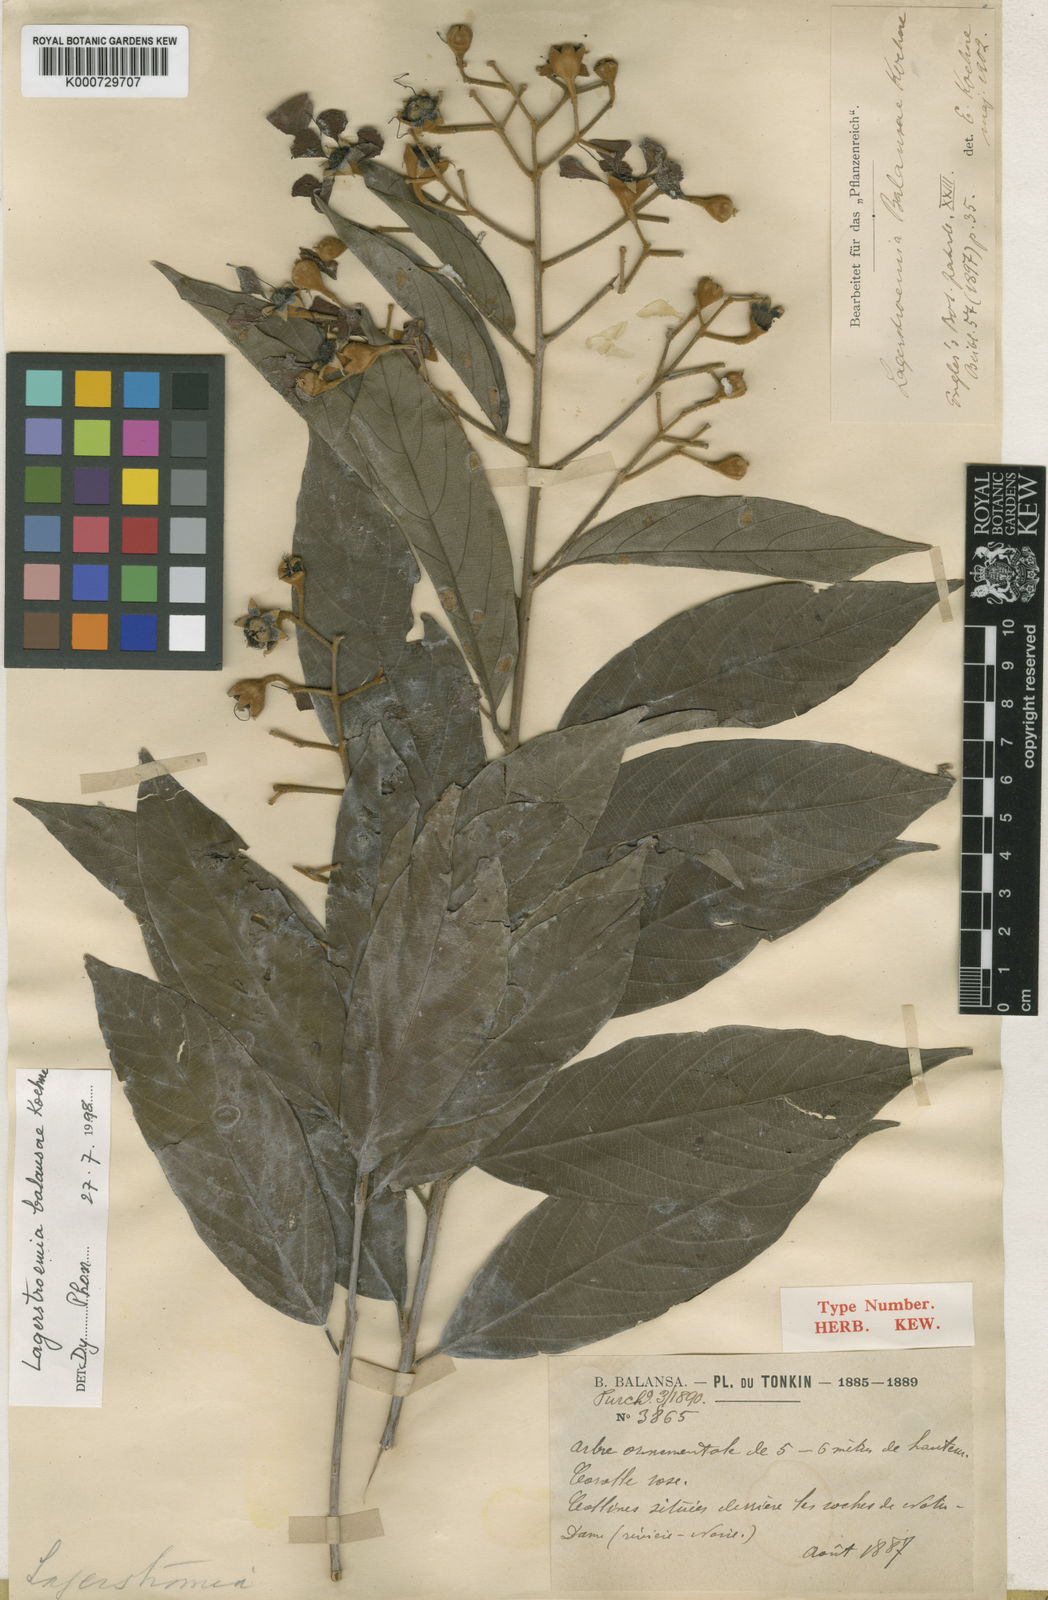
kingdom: Plantae
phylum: Tracheophyta
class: Magnoliopsida
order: Myrtales
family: Lythraceae
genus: Lagerstroemia
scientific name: Lagerstroemia cochinchinensis
